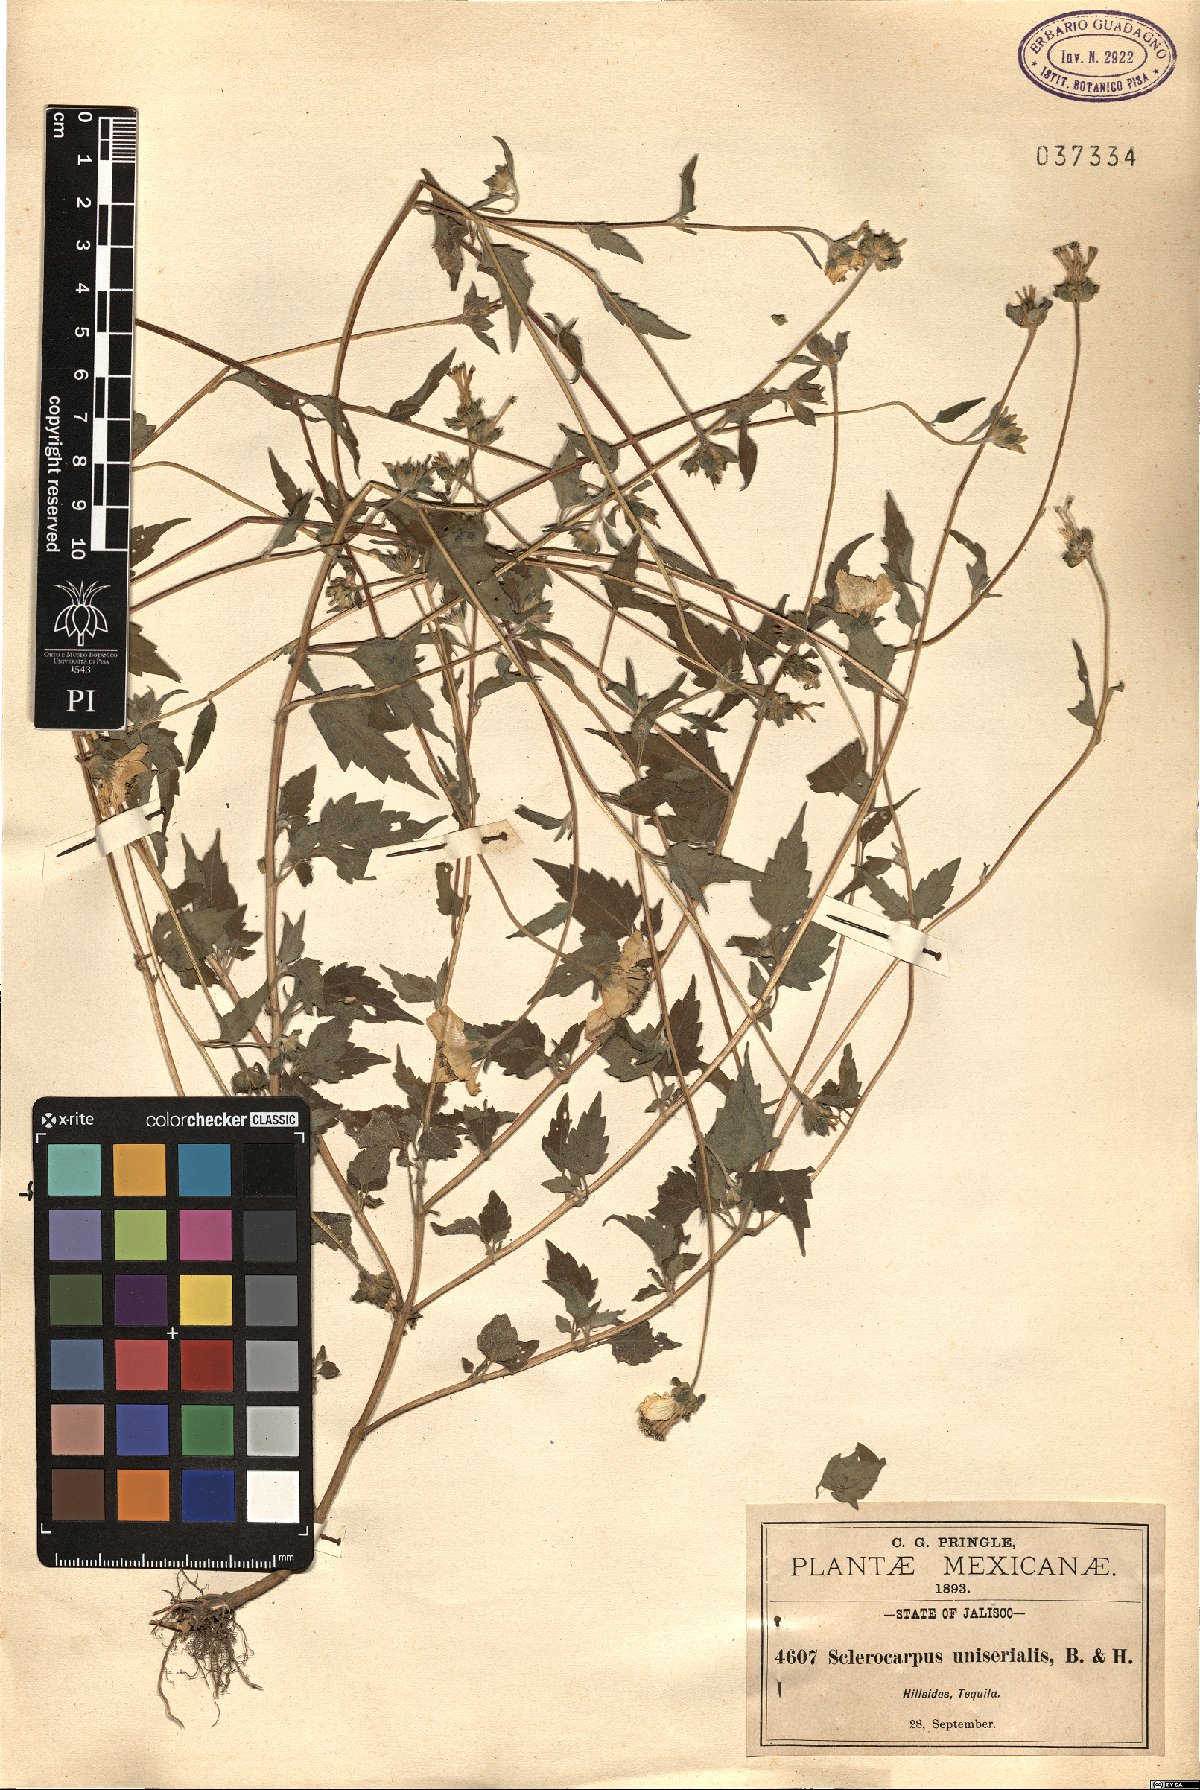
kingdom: Plantae
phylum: Tracheophyta
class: Magnoliopsida
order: Asterales
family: Asteraceae
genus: Sclerocarpus
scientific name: Sclerocarpus uniserialis
